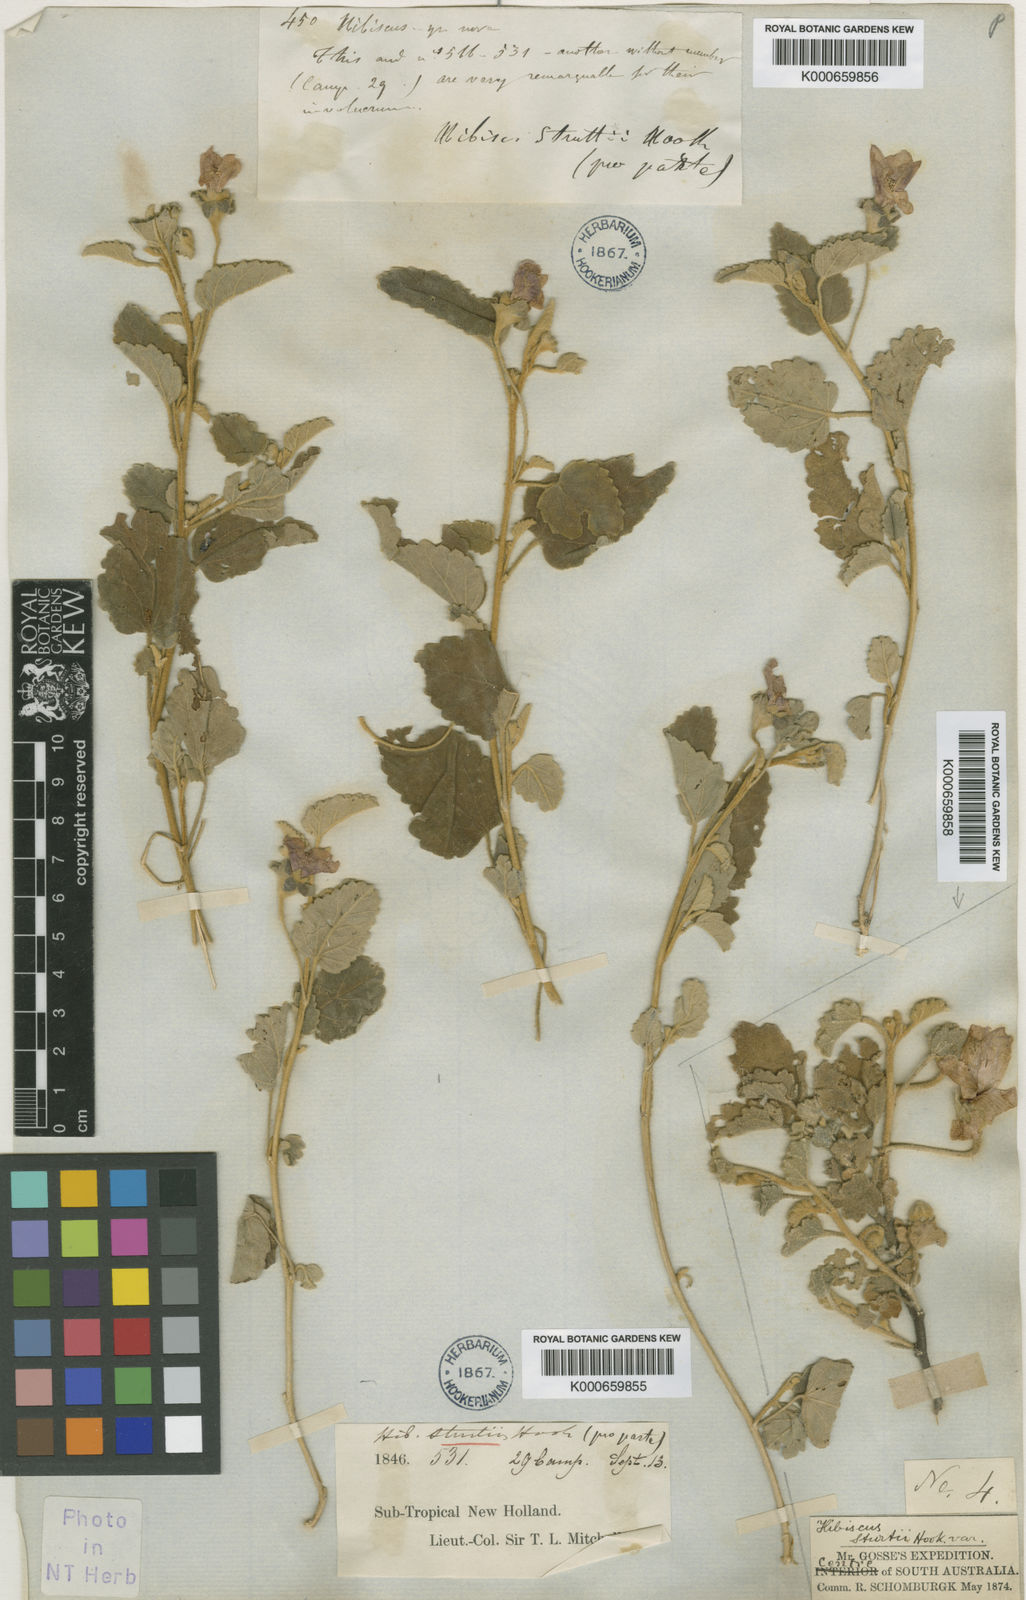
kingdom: Plantae
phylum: Tracheophyta
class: Magnoliopsida
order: Malvales
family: Malvaceae
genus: Hibiscus
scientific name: Hibiscus sturtii
